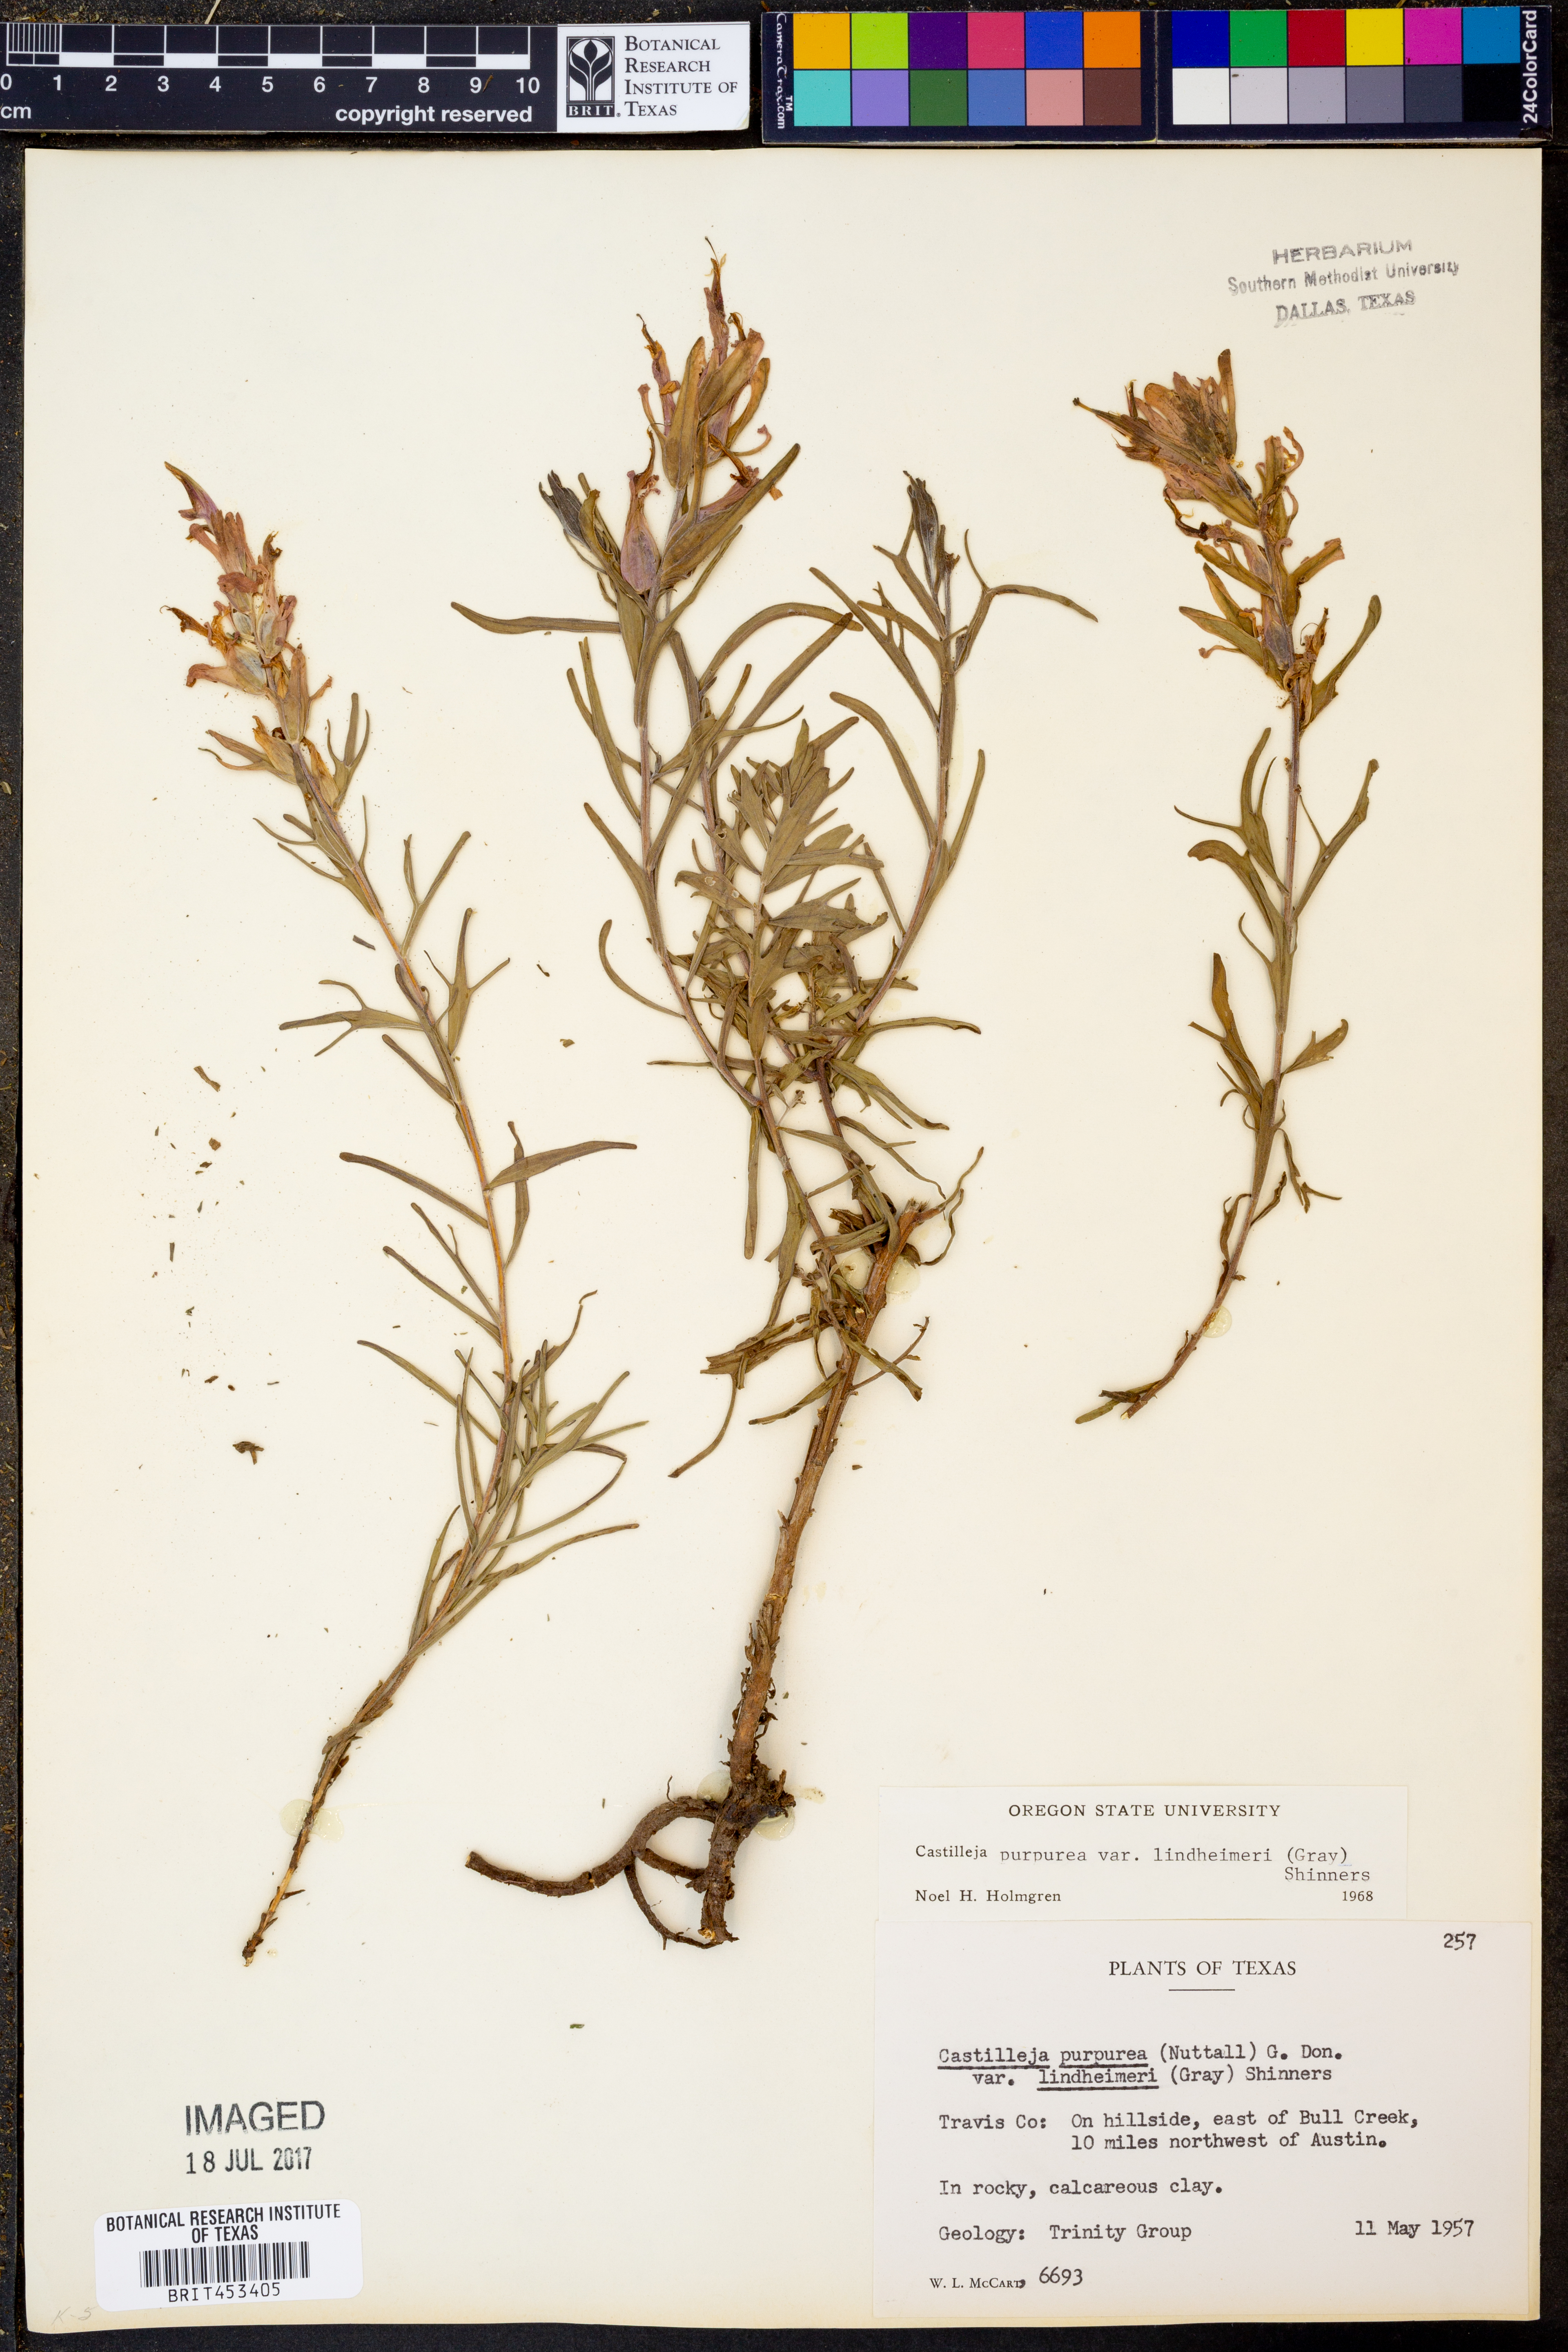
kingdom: Plantae
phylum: Tracheophyta
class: Magnoliopsida
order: Lamiales
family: Orobanchaceae
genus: Castilleja
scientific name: Castilleja lindheimeri
